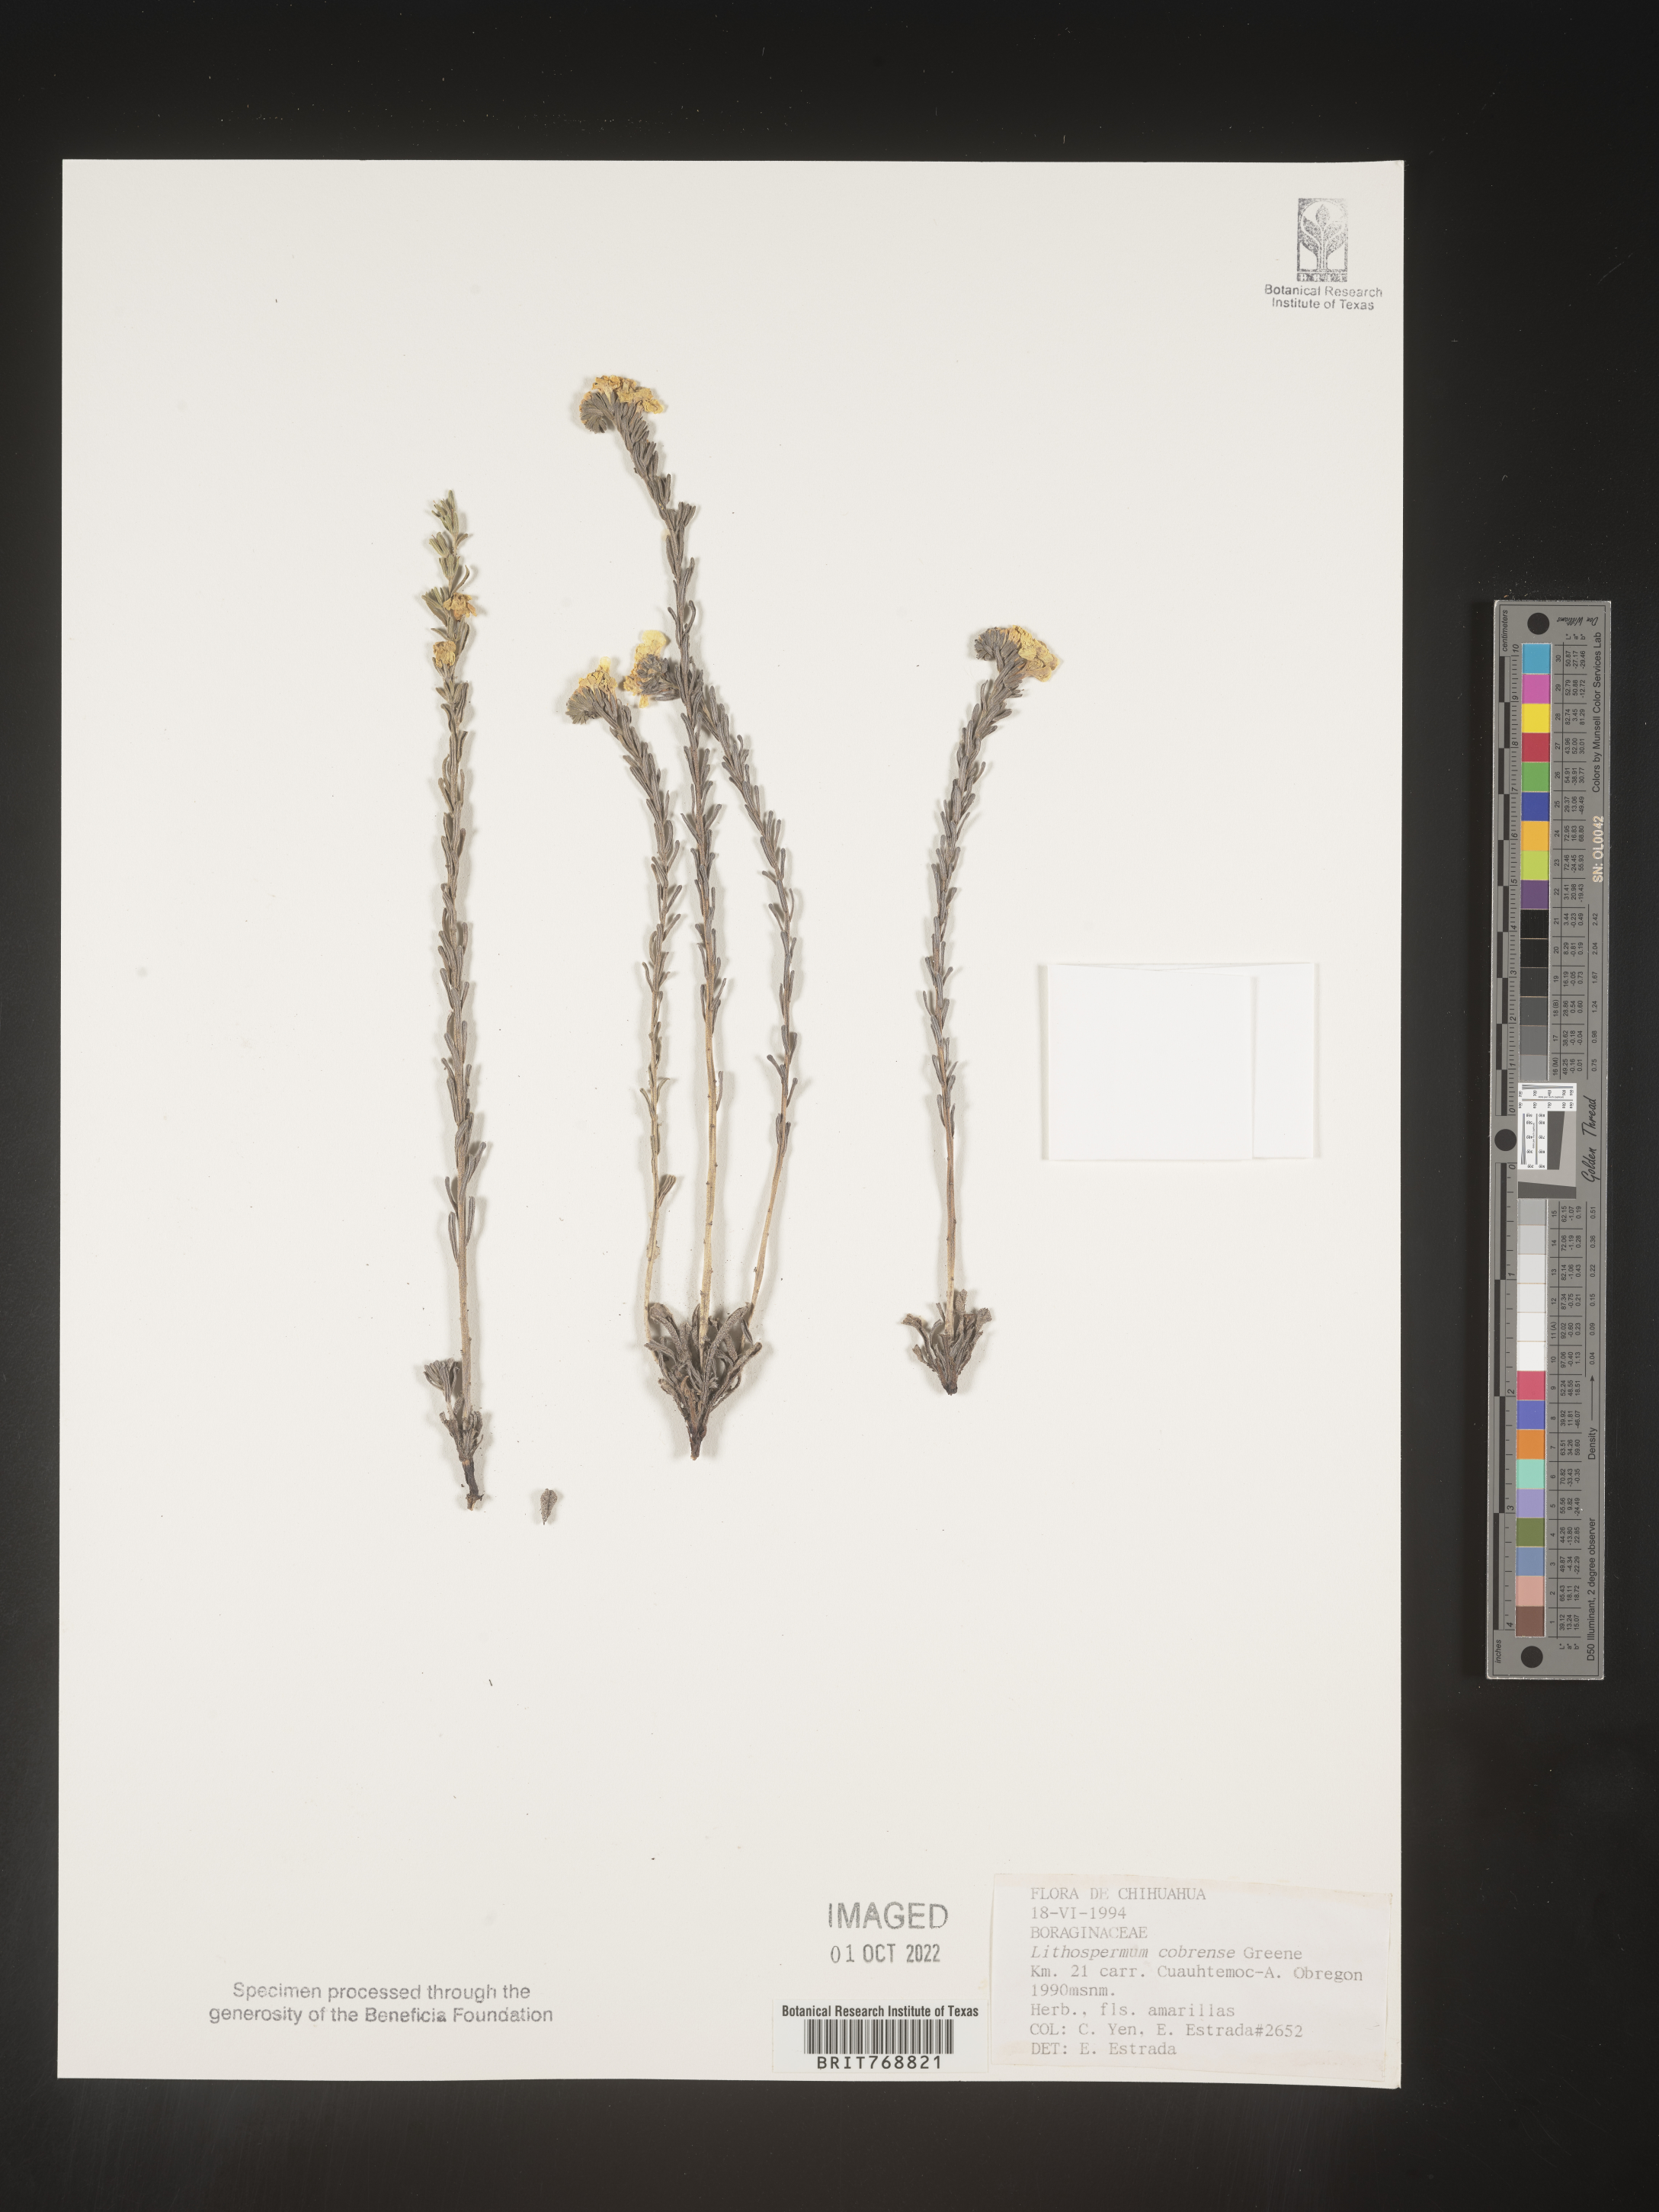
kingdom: Plantae
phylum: Tracheophyta
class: Magnoliopsida
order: Boraginales
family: Boraginaceae
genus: Lithospermum
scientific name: Lithospermum
